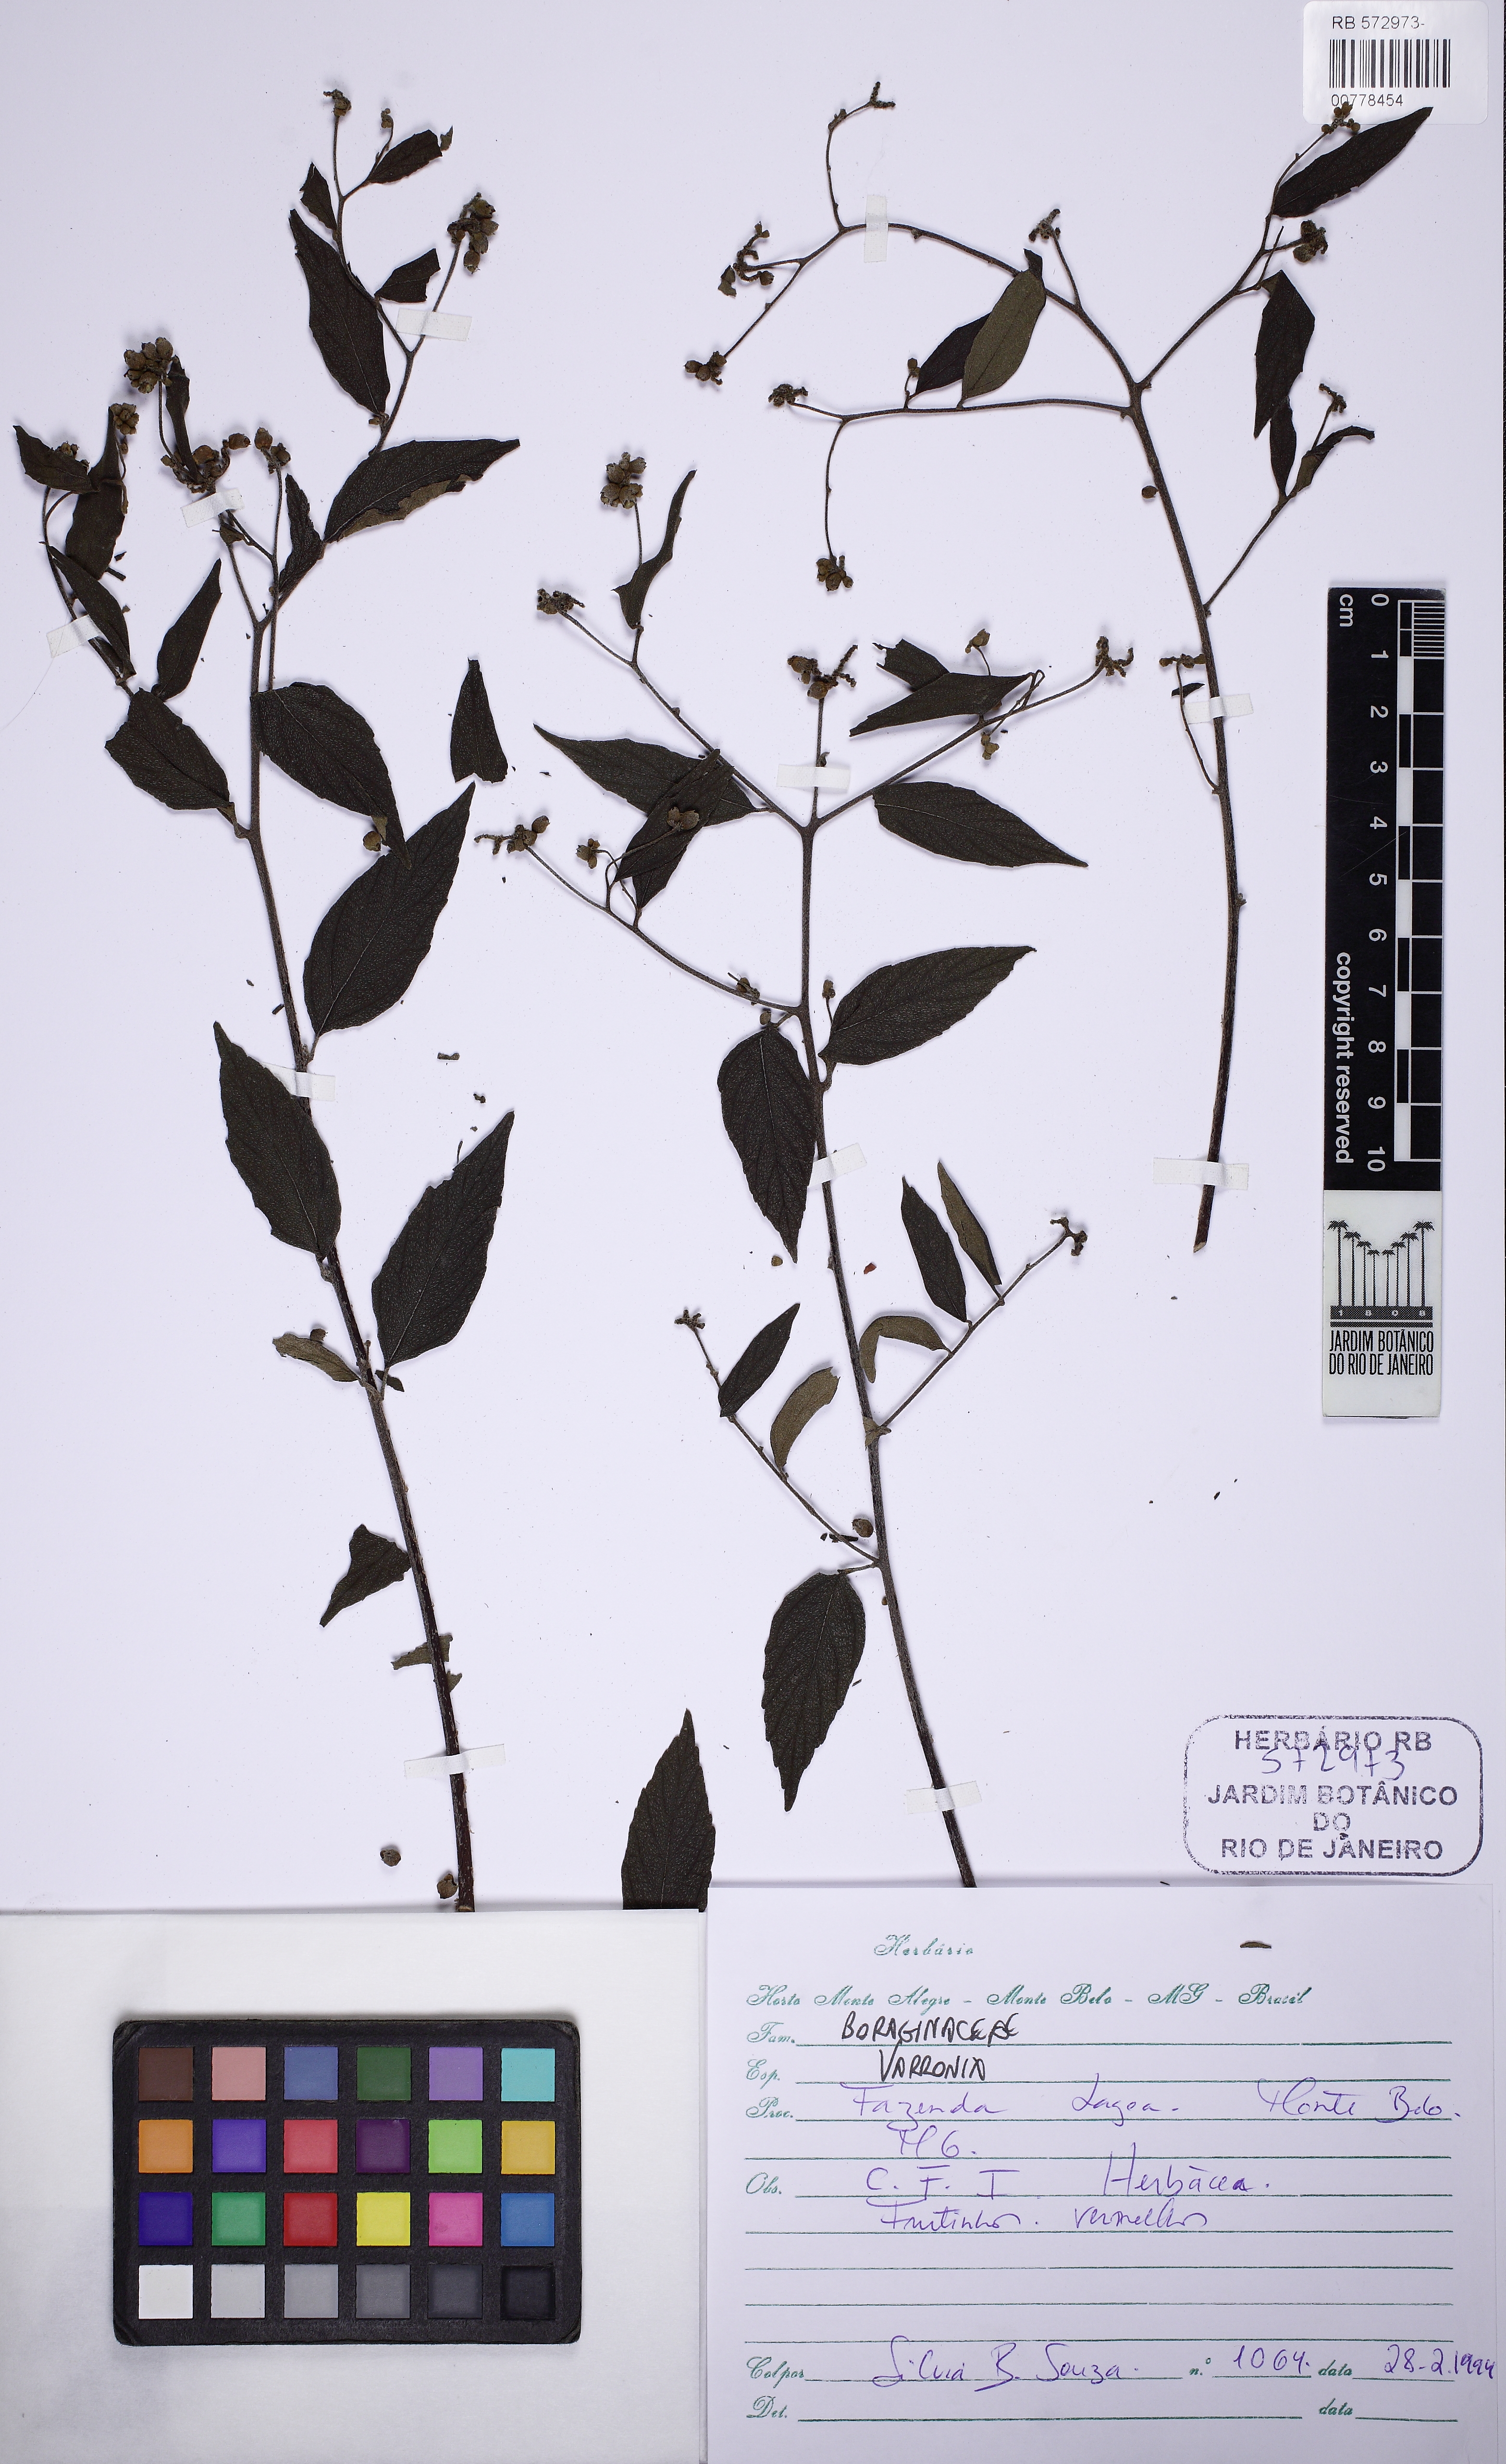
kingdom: Plantae
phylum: Tracheophyta
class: Magnoliopsida
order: Boraginales
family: Cordiaceae
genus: Varronia
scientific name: Varronia
